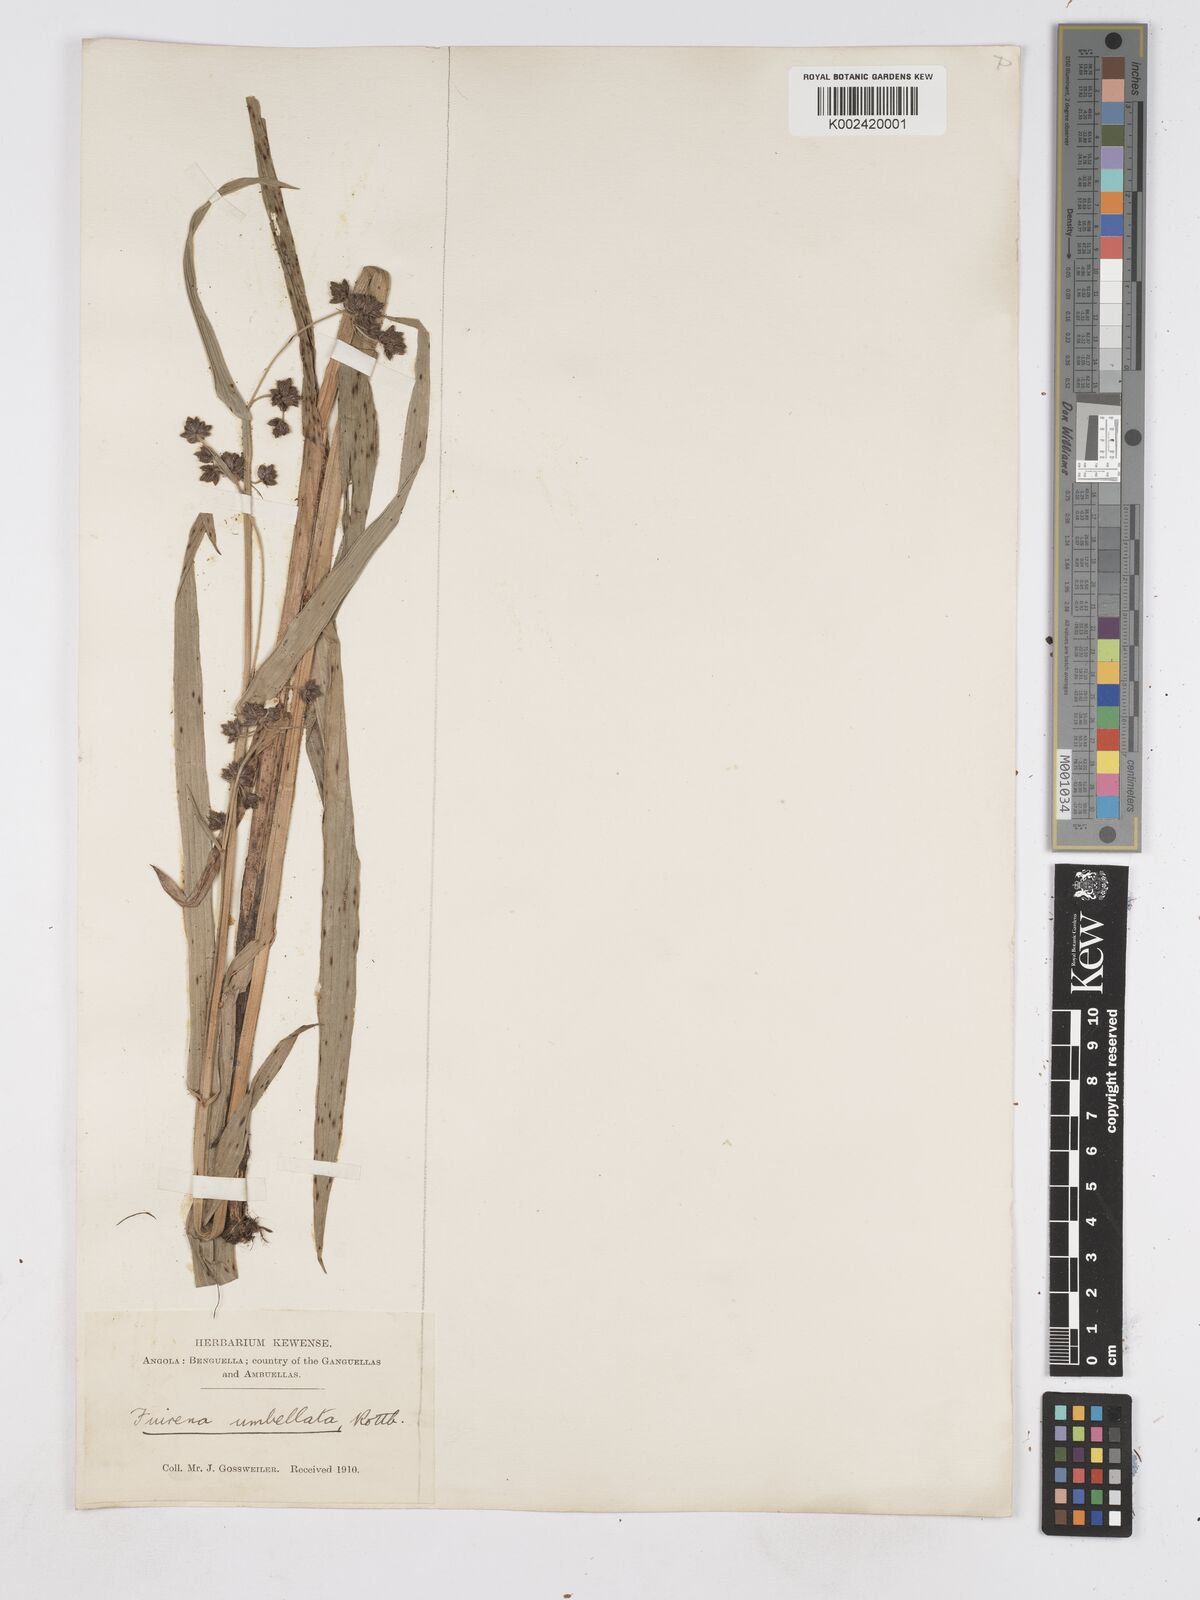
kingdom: Plantae
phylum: Tracheophyta
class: Liliopsida
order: Poales
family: Cyperaceae
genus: Fuirena
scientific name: Fuirena umbellata
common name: Yefen
